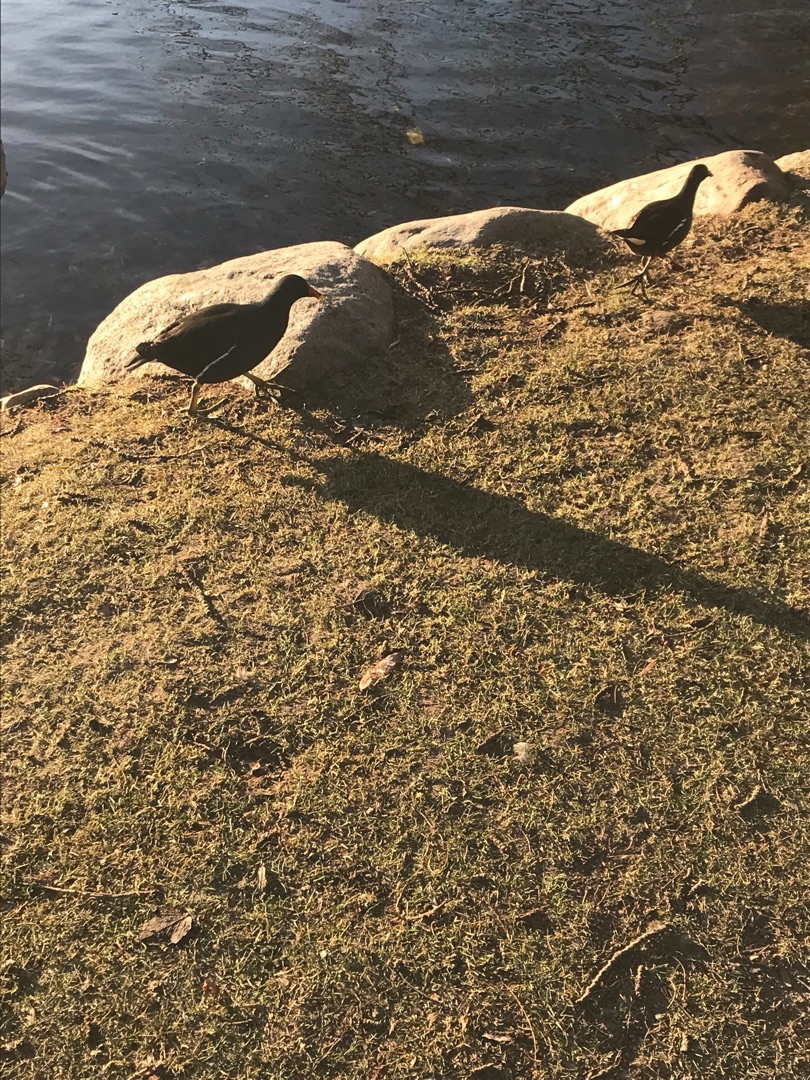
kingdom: Animalia
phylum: Chordata
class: Aves
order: Gruiformes
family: Rallidae
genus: Gallinula
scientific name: Gallinula chloropus
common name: Grønbenet rørhøne
